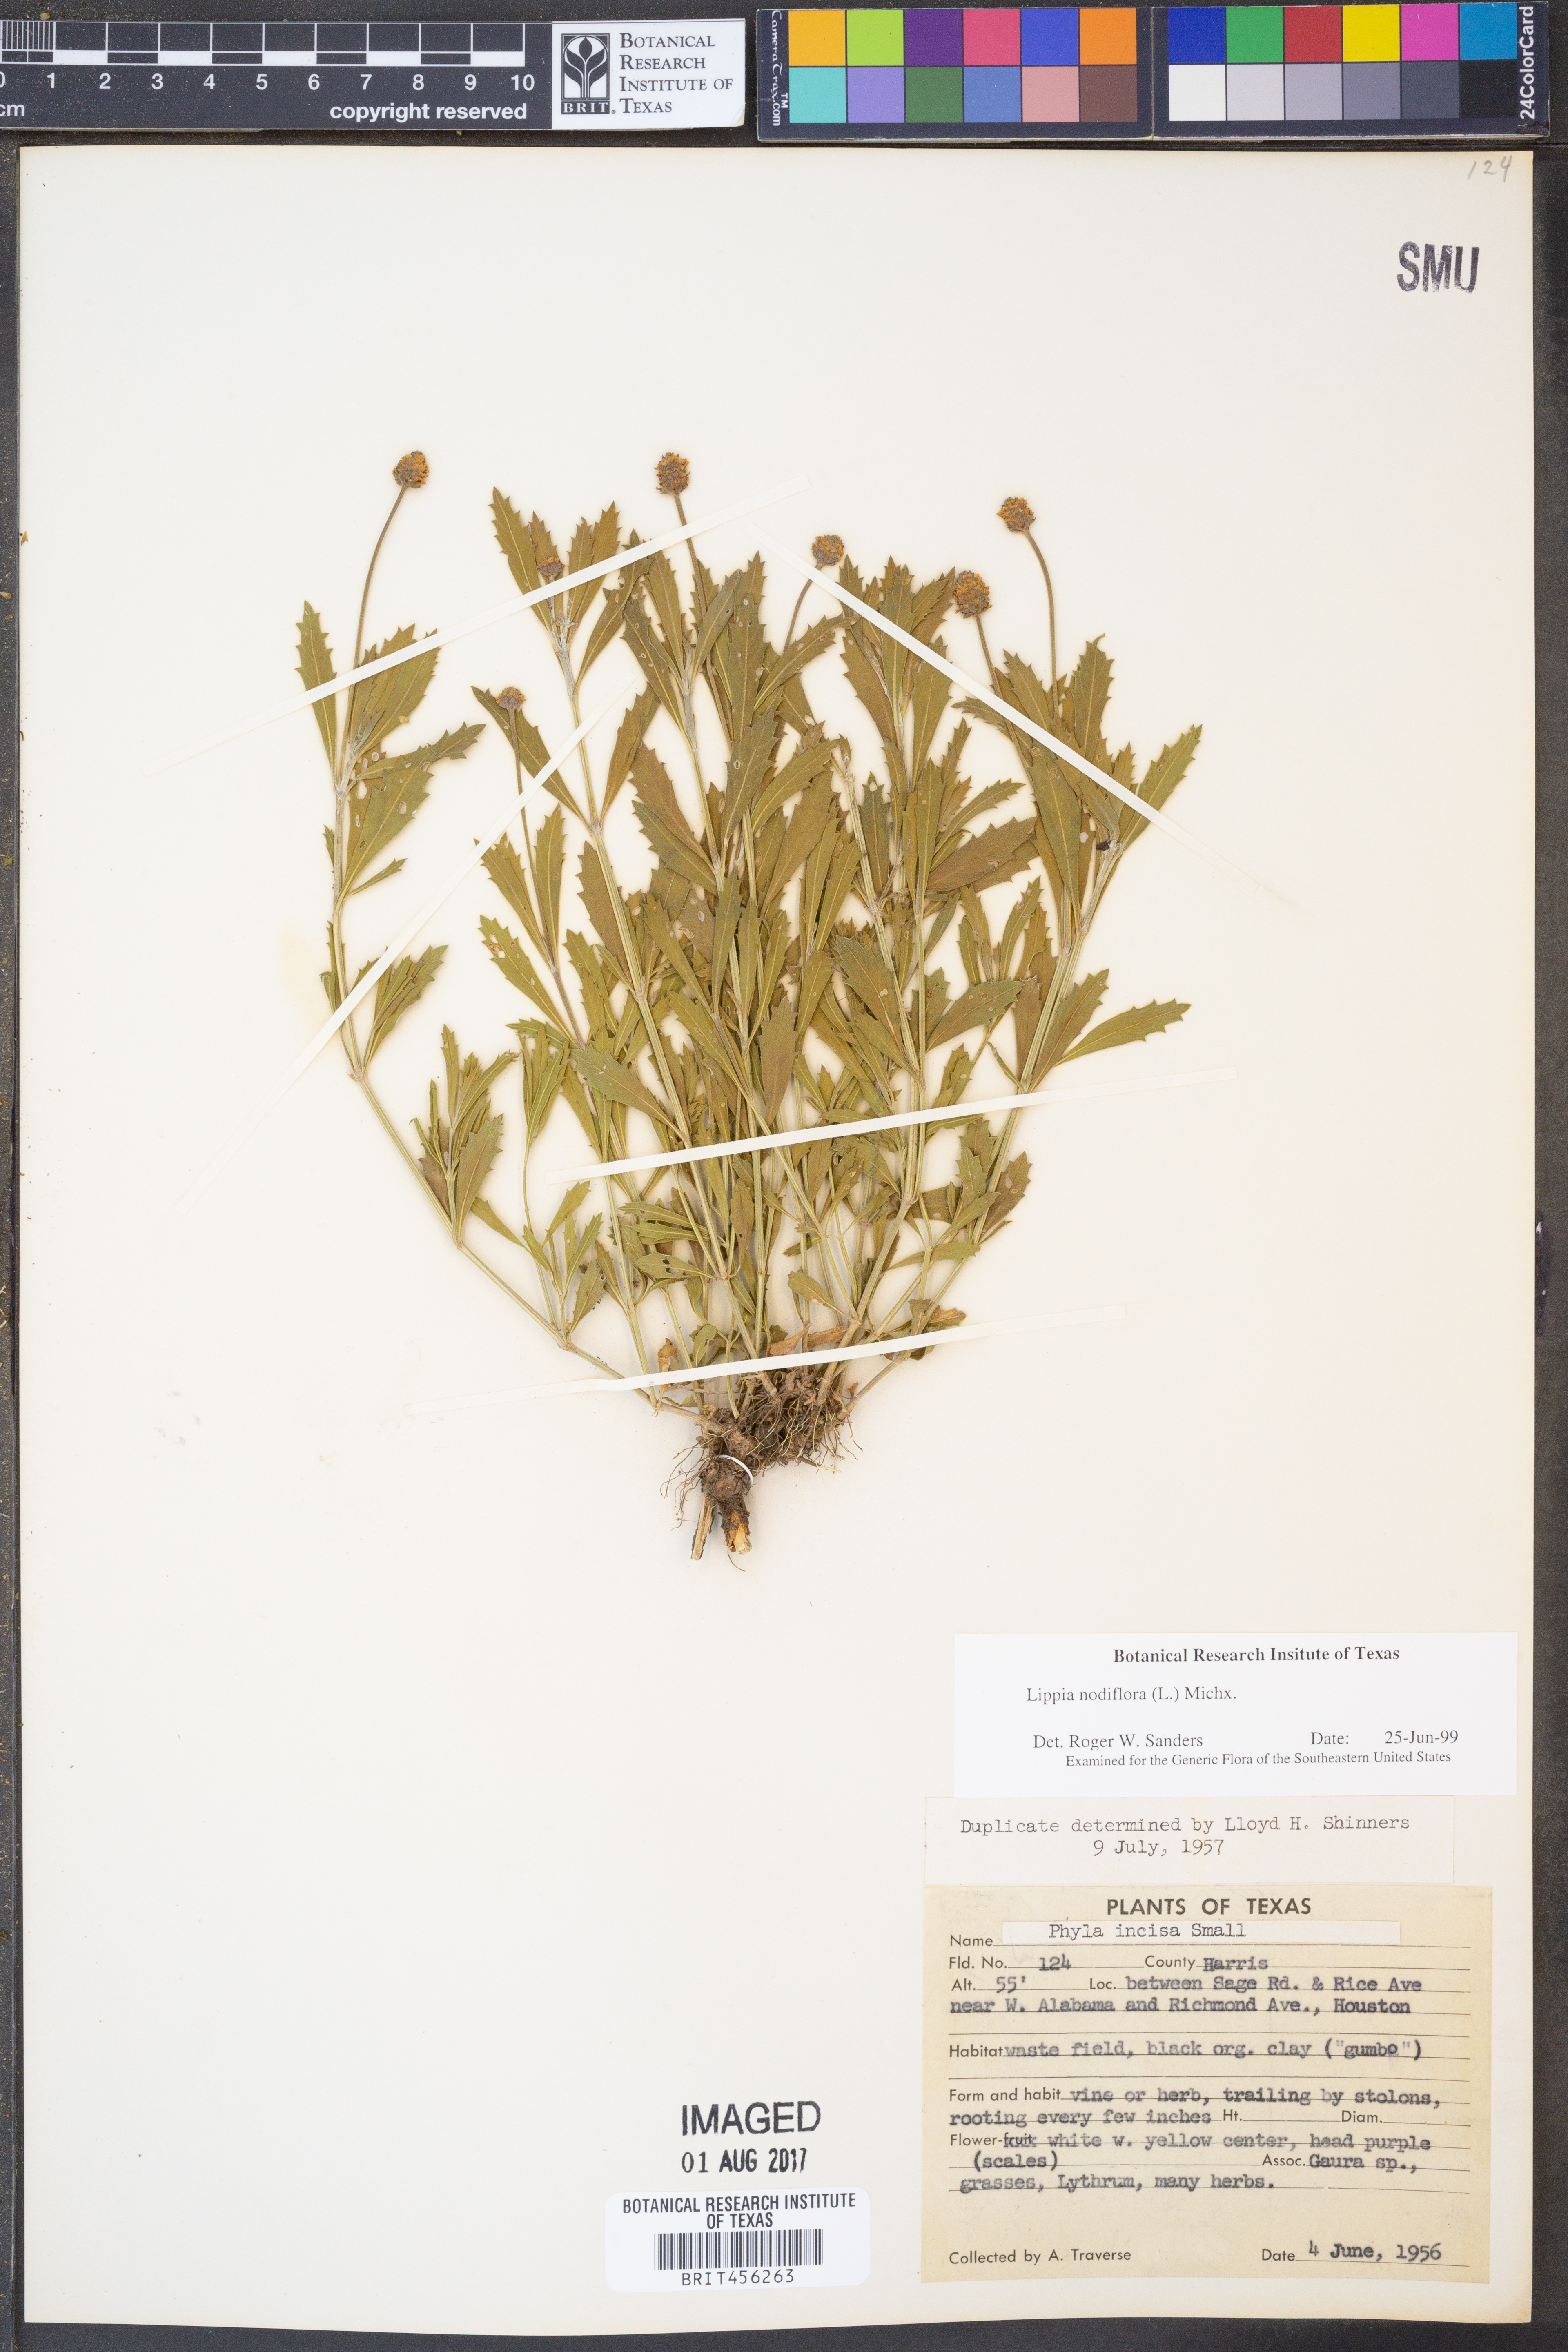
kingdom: Plantae
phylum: Tracheophyta
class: Magnoliopsida
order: Lamiales
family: Verbenaceae
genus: Phyla
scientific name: Phyla nodiflora
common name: Frogfruit
